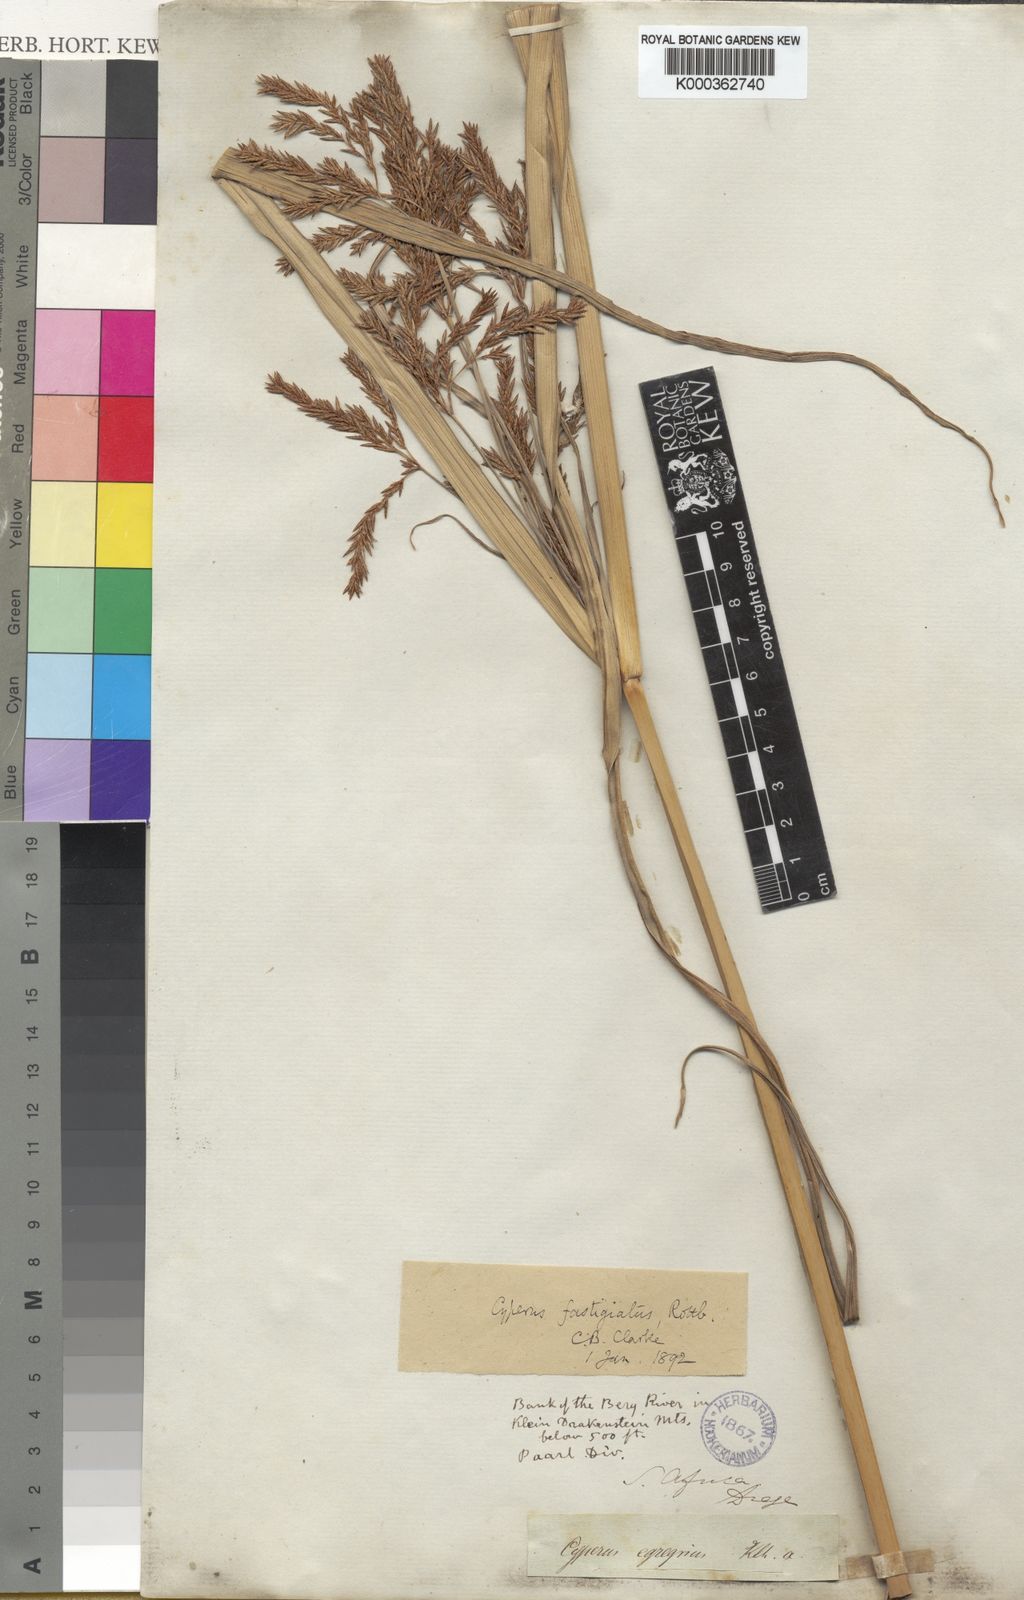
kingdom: Plantae
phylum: Tracheophyta
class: Liliopsida
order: Poales
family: Cyperaceae
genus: Cyperus
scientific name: Cyperus fastigiatus
